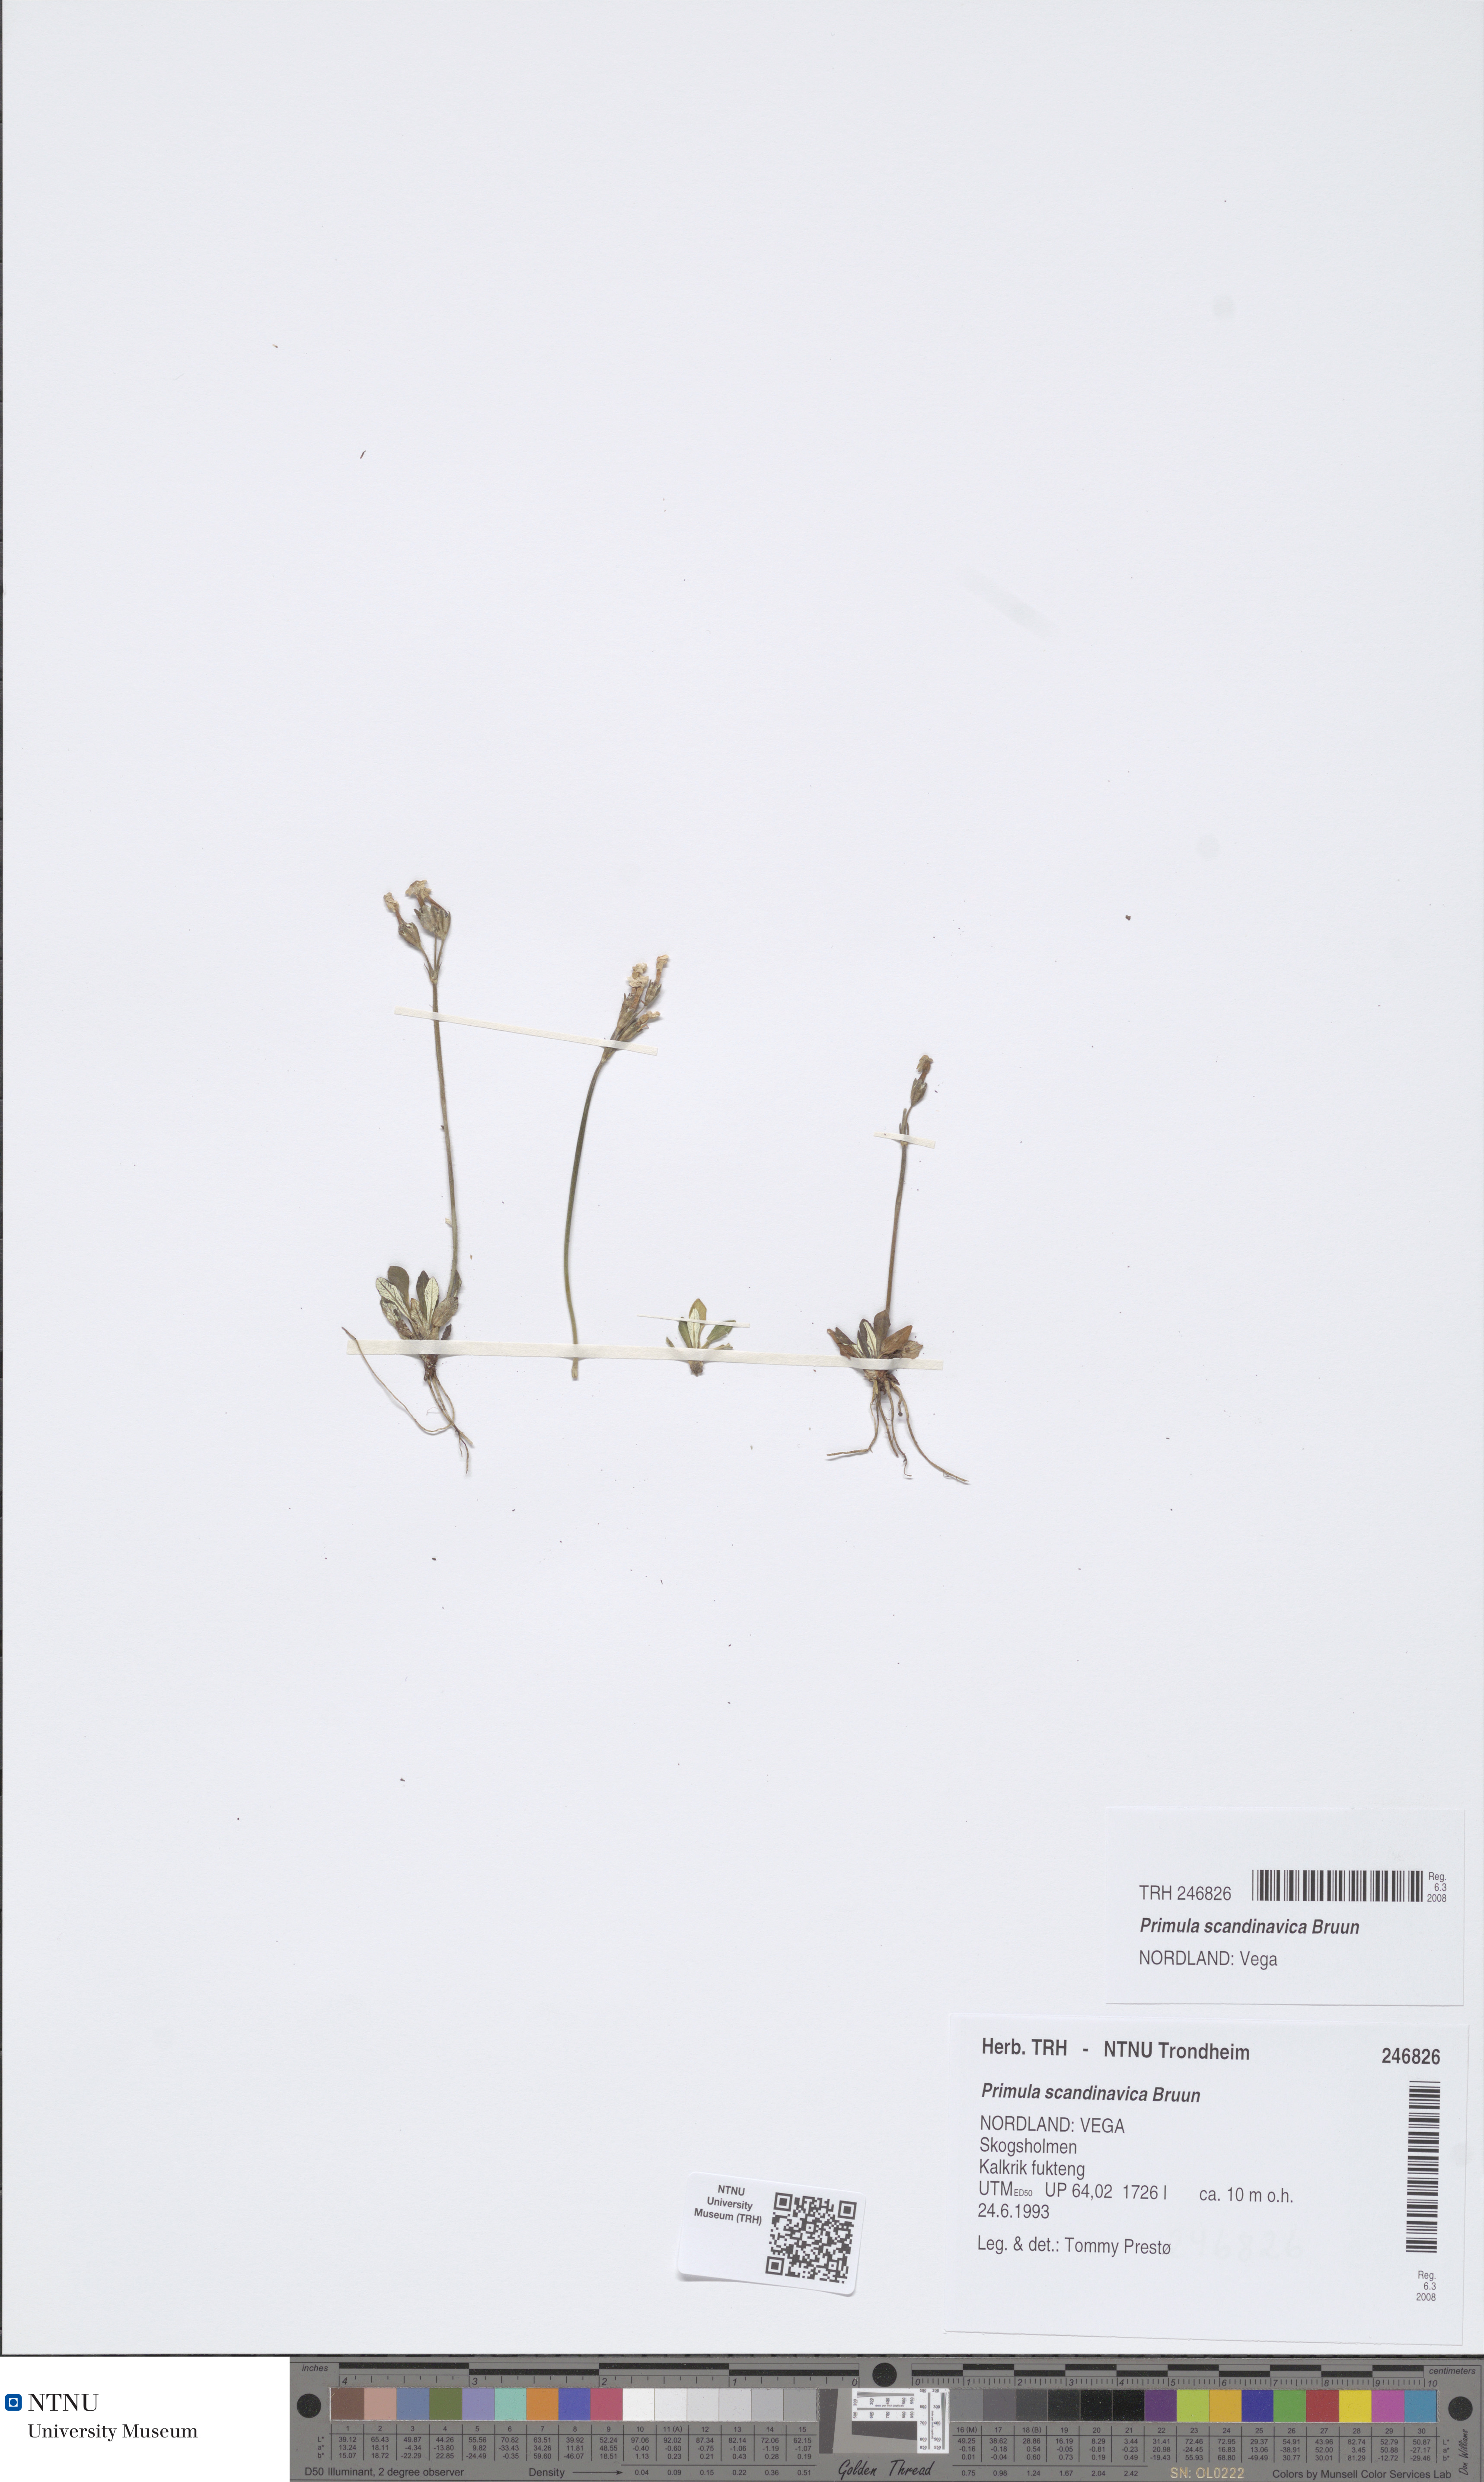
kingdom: Plantae
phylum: Tracheophyta
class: Magnoliopsida
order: Ericales
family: Primulaceae
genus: Primula
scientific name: Primula scandinavica
